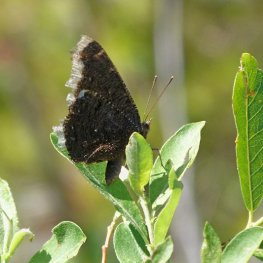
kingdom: Animalia
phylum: Arthropoda
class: Insecta
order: Lepidoptera
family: Nymphalidae
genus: Nymphalis
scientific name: Nymphalis antiopa
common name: Mourning Cloak
